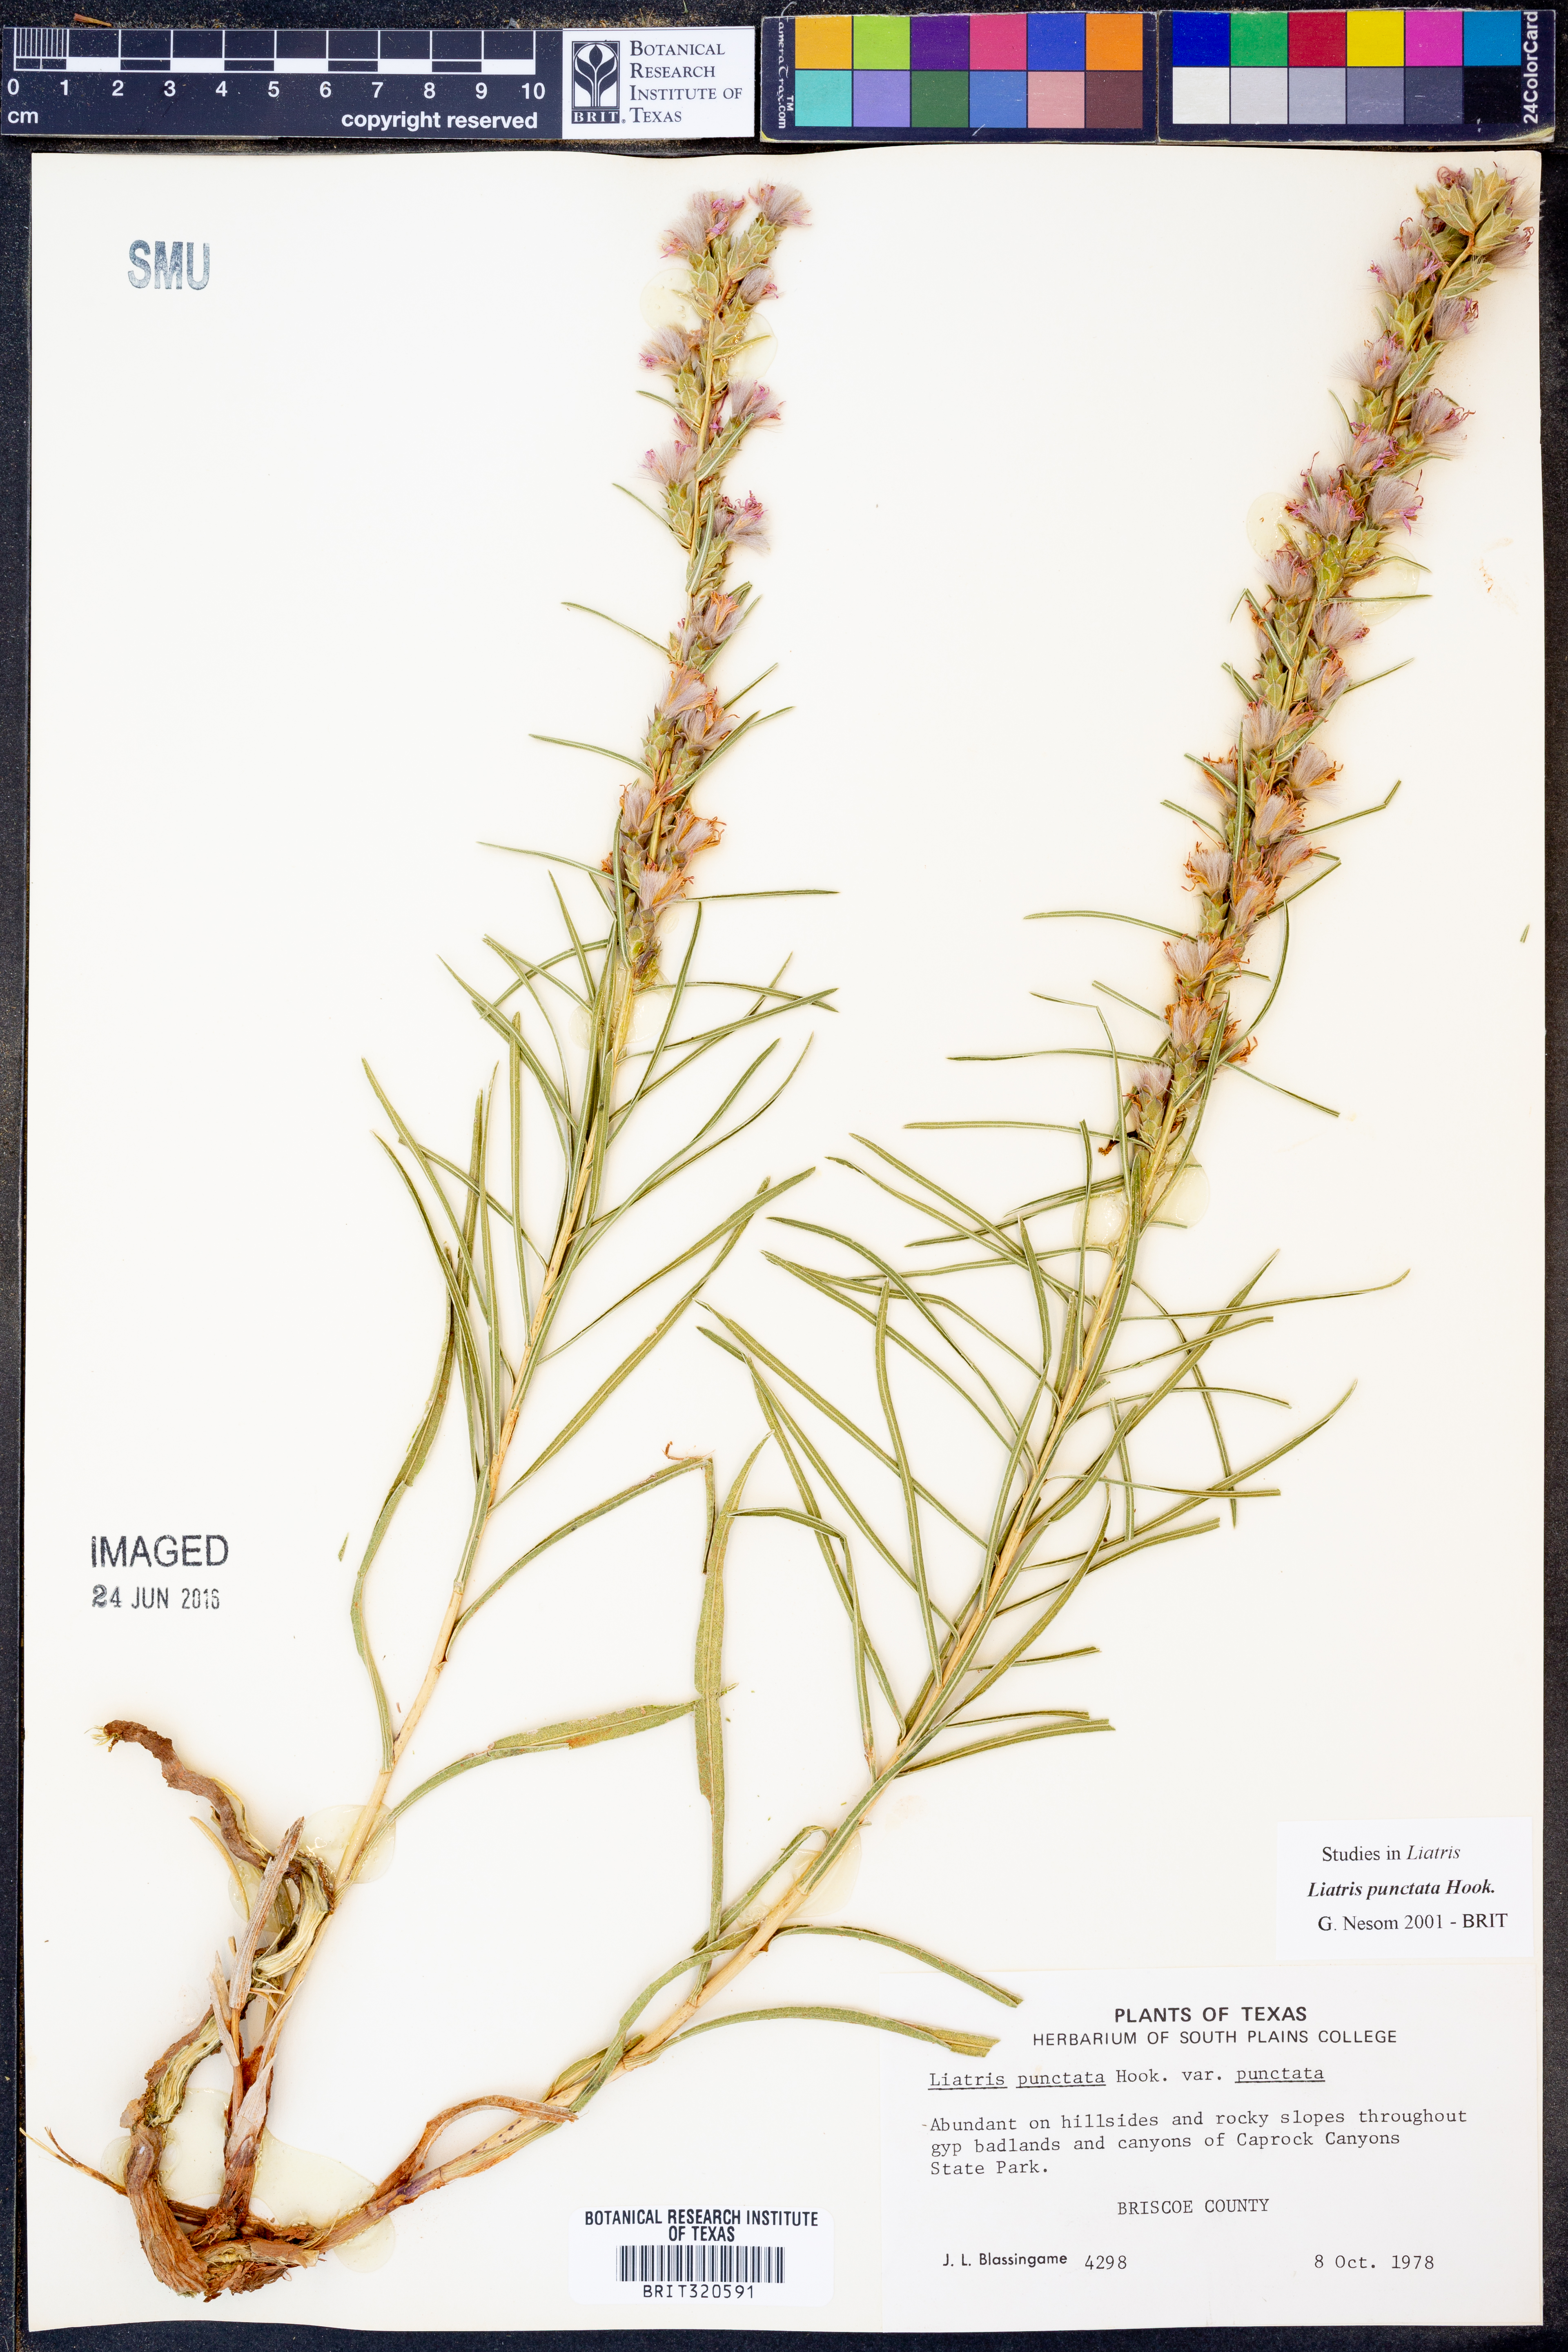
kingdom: Plantae
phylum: Tracheophyta
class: Magnoliopsida
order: Asterales
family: Asteraceae
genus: Liatris
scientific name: Liatris punctata
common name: Dotted gayfeather
